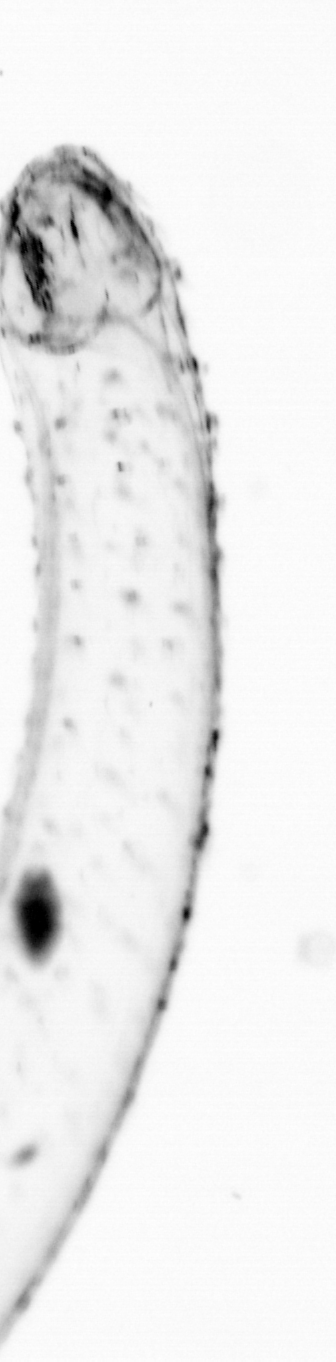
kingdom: Animalia
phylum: Chaetognatha
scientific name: Chaetognatha
